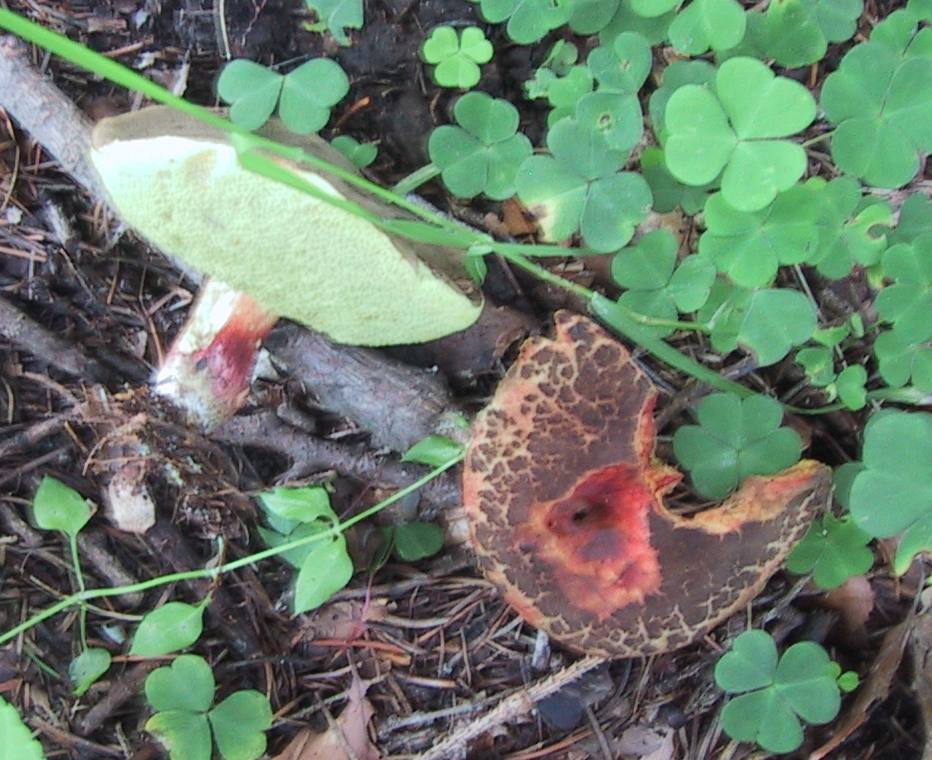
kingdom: Fungi
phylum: Basidiomycota
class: Agaricomycetes
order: Boletales
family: Boletaceae
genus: Xerocomellus
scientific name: Xerocomellus chrysenteron
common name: rødsprukken rørhat
